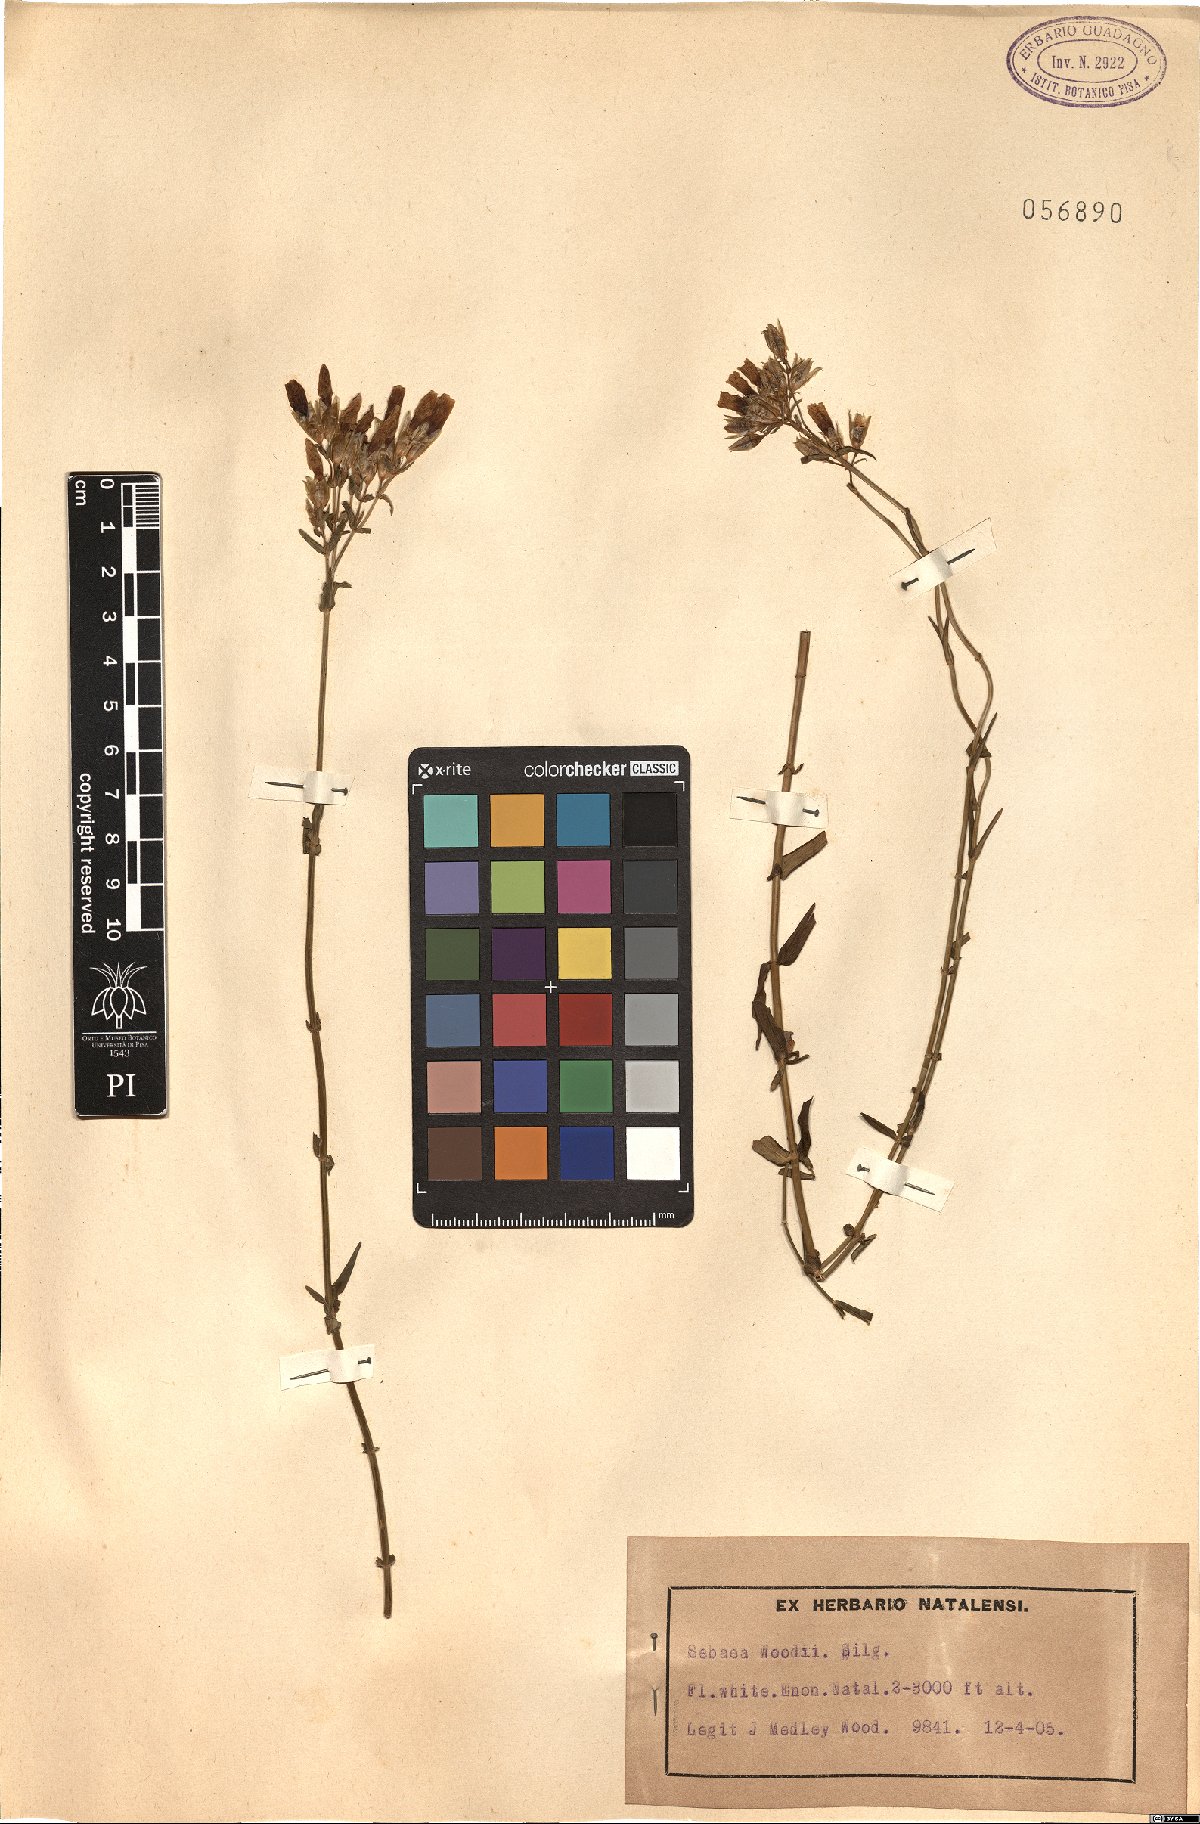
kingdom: Plantae
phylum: Tracheophyta
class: Magnoliopsida
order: Gentianales
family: Gentianaceae
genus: Sebaea
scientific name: Sebaea longicaulis
